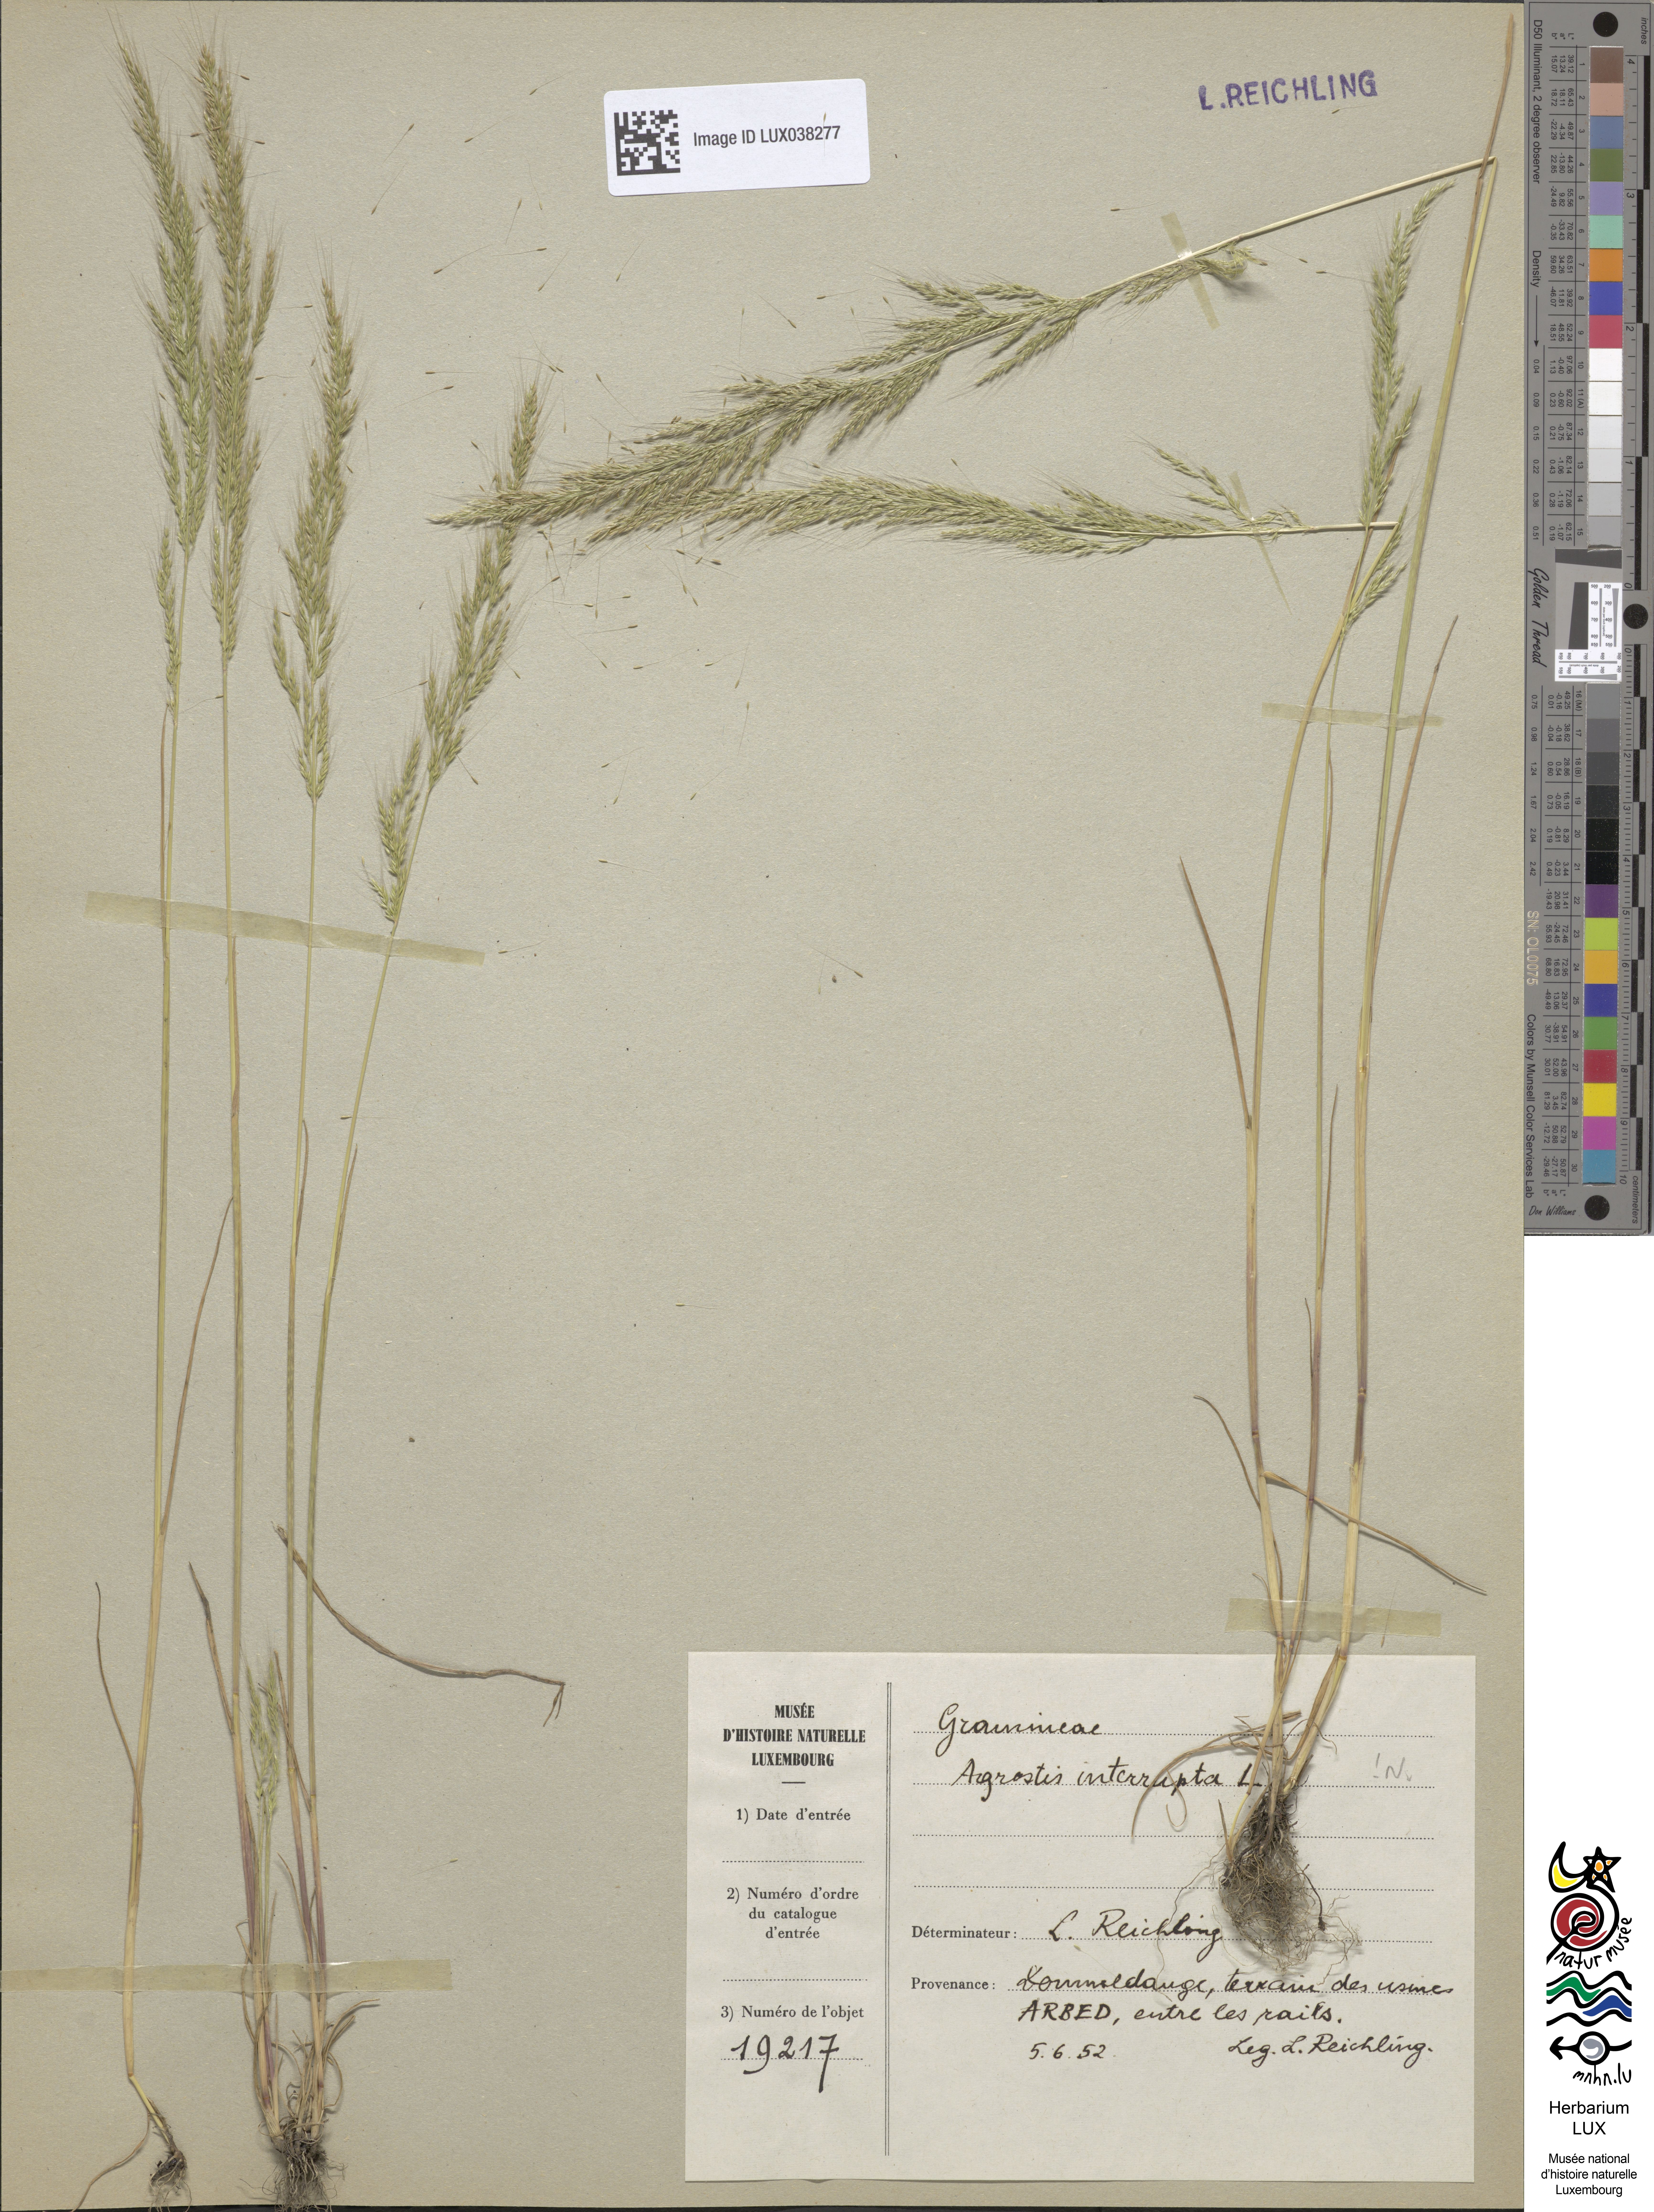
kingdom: Plantae
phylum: Tracheophyta
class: Liliopsida
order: Poales
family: Poaceae
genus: Apera
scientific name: Apera interrupta
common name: Dense silky-bent
